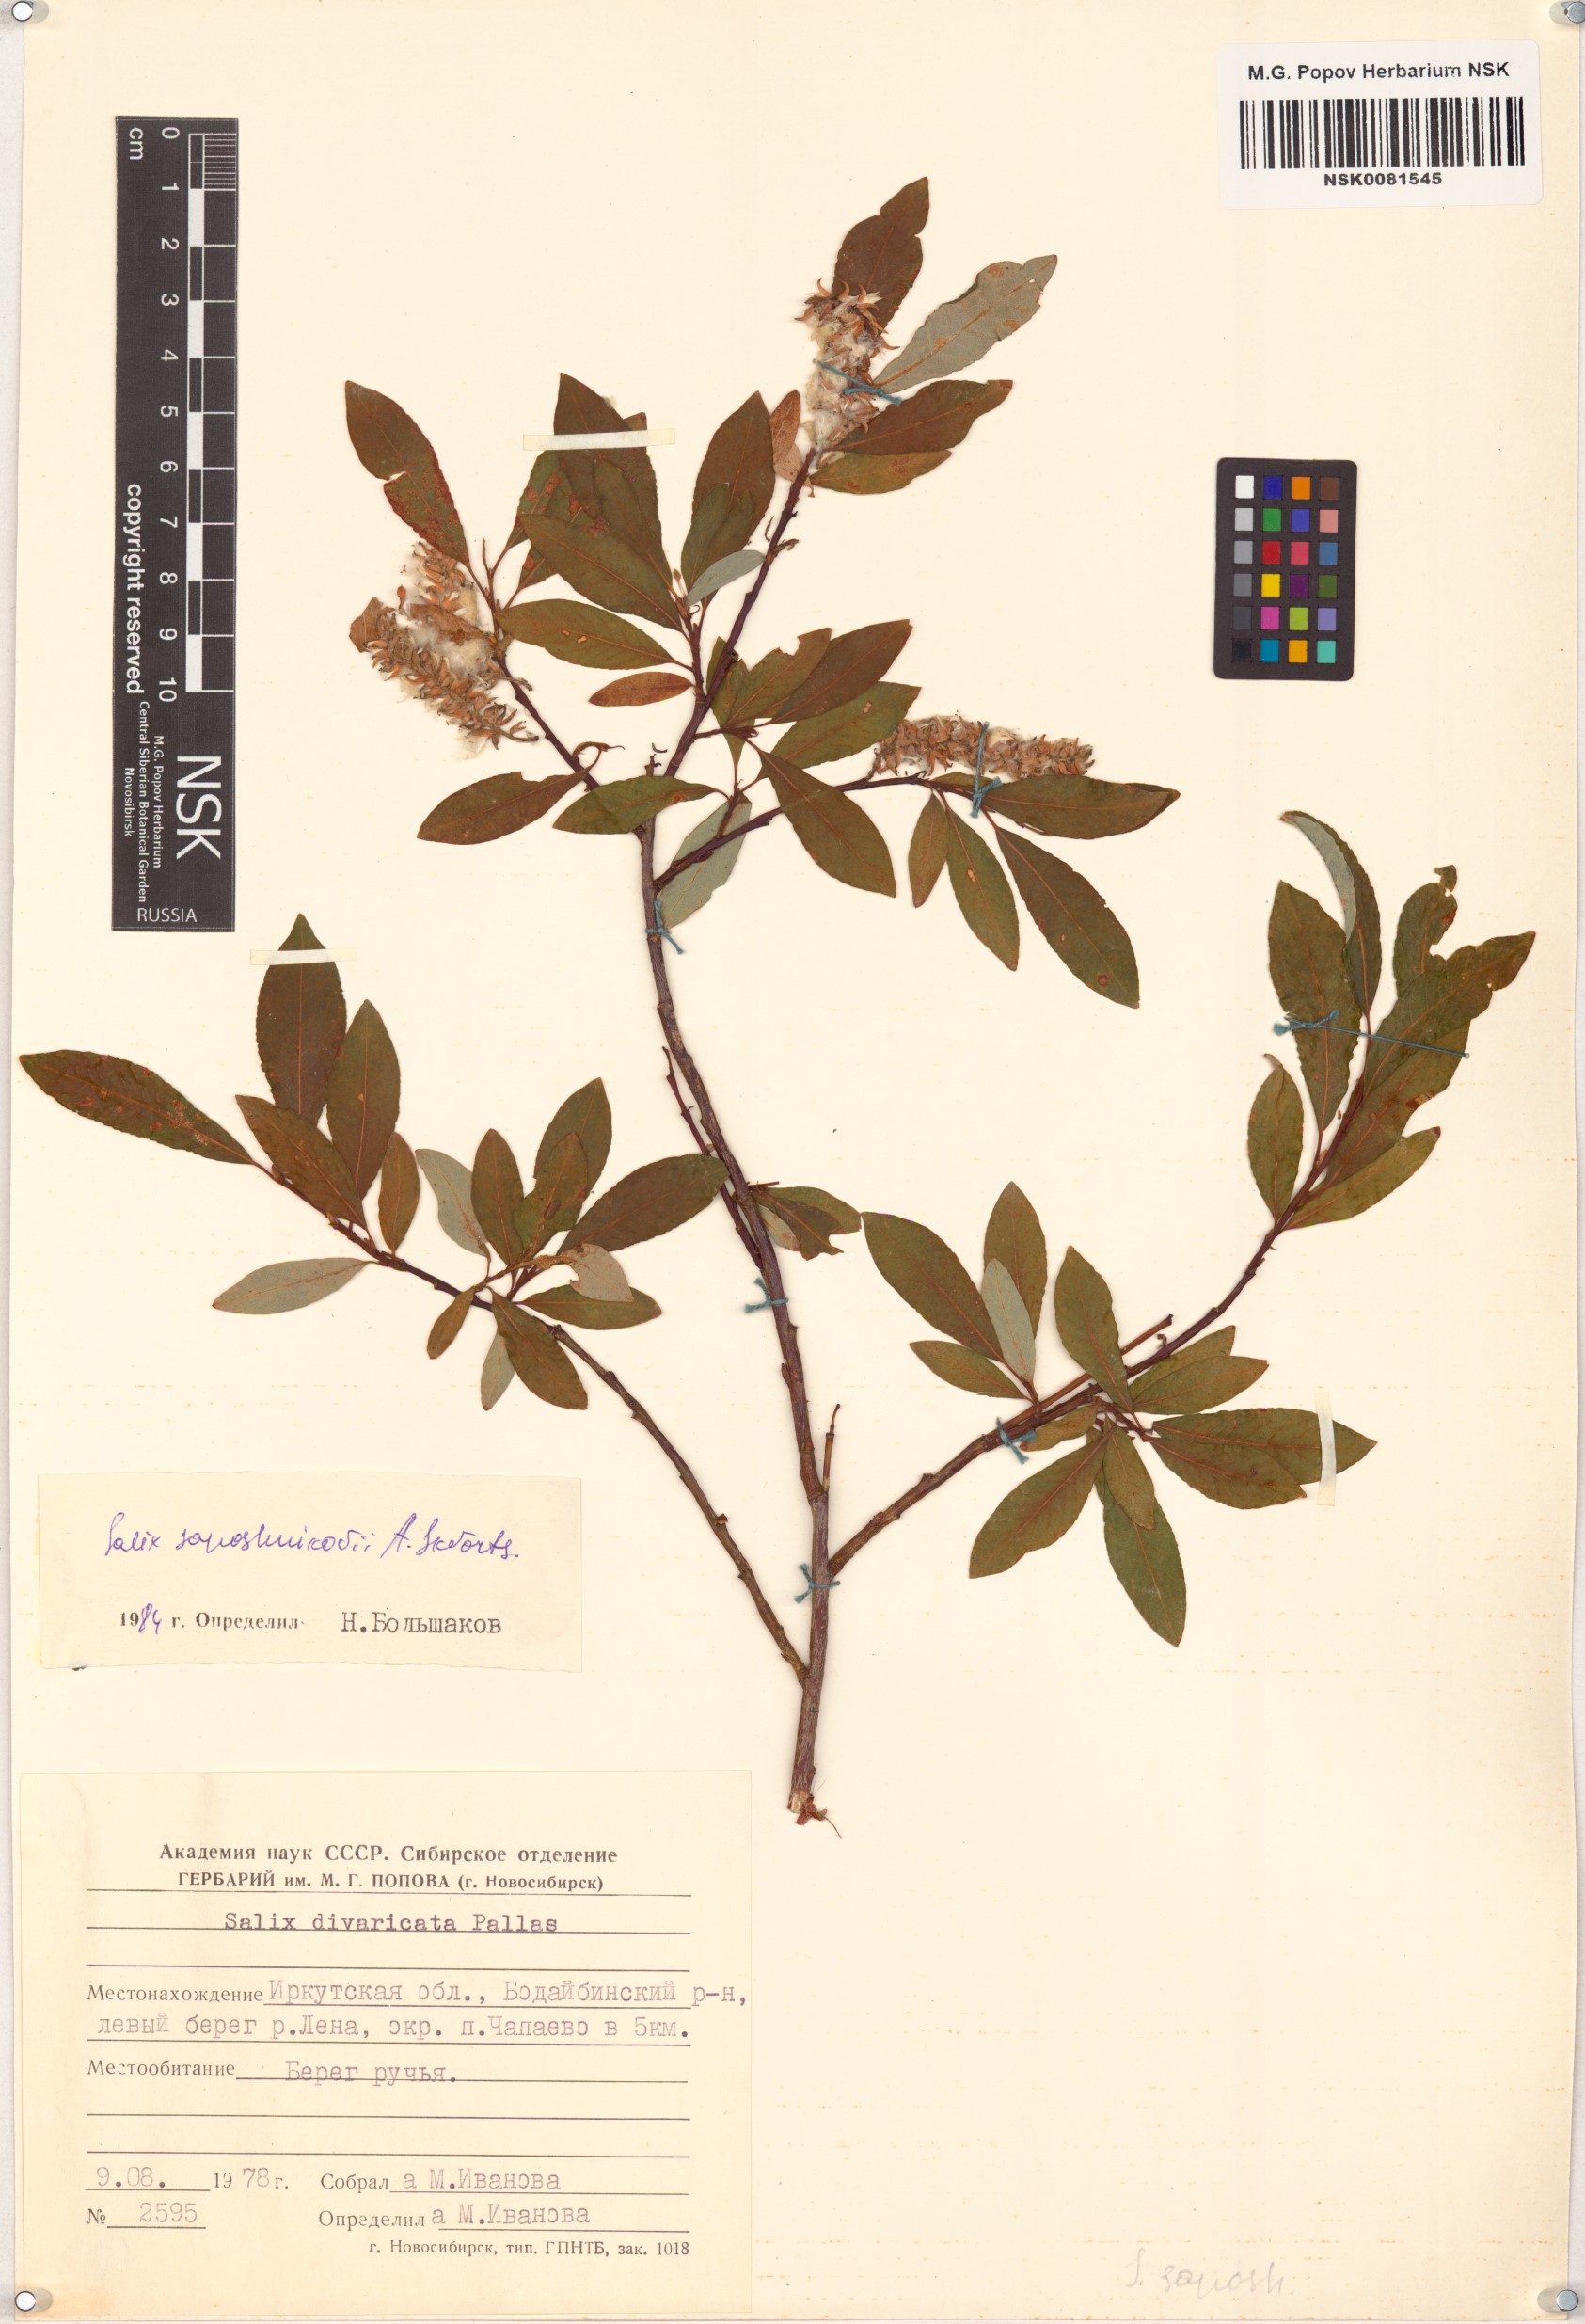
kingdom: Plantae
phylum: Tracheophyta
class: Magnoliopsida
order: Malpighiales
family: Salicaceae
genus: Salix
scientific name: Salix saposhnikovii
